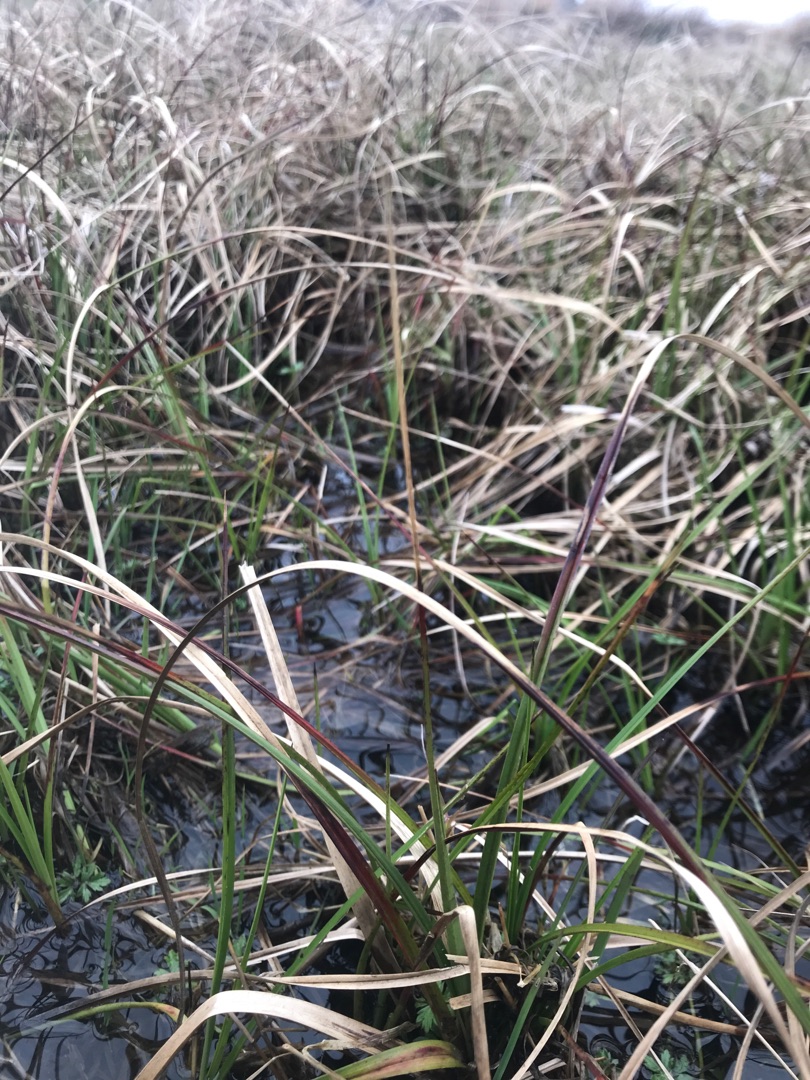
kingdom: Plantae
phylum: Tracheophyta
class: Liliopsida
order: Poales
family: Cyperaceae
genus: Eriophorum
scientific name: Eriophorum angustifolium
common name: Smalbladet kæruld
